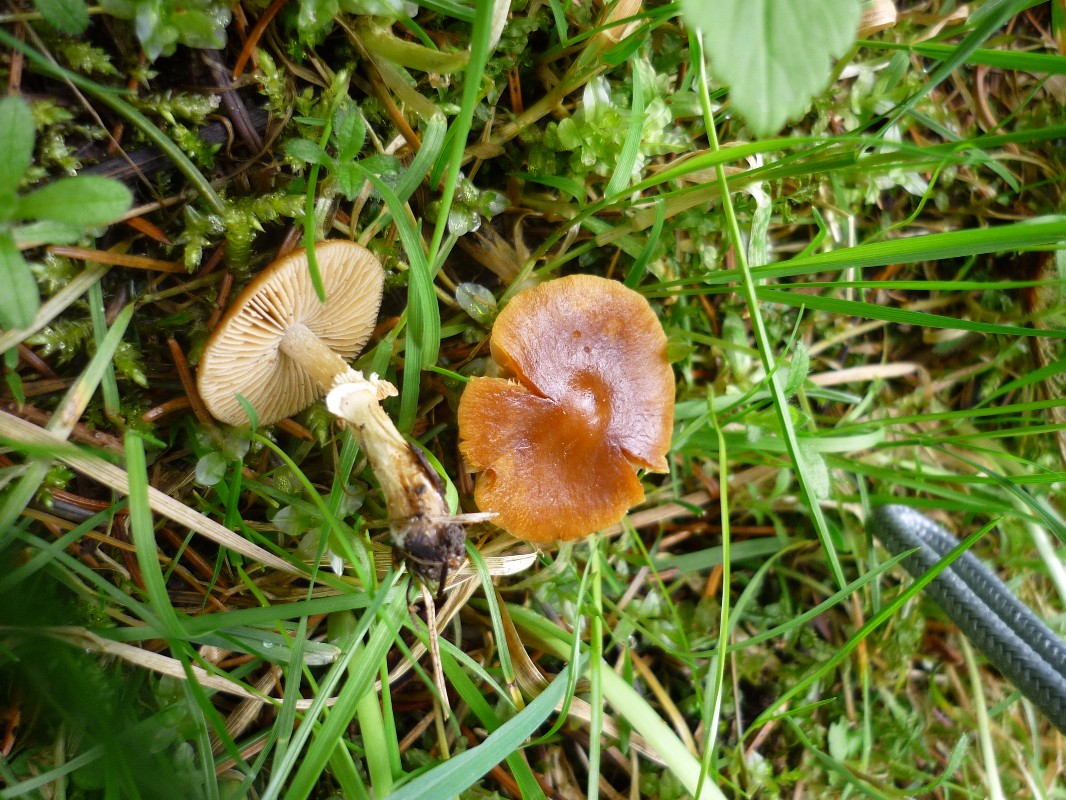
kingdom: Fungi
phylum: Basidiomycota
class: Agaricomycetes
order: Agaricales
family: Bolbitiaceae
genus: Conocybe
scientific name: Conocybe aporos
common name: tidlig dansehat
